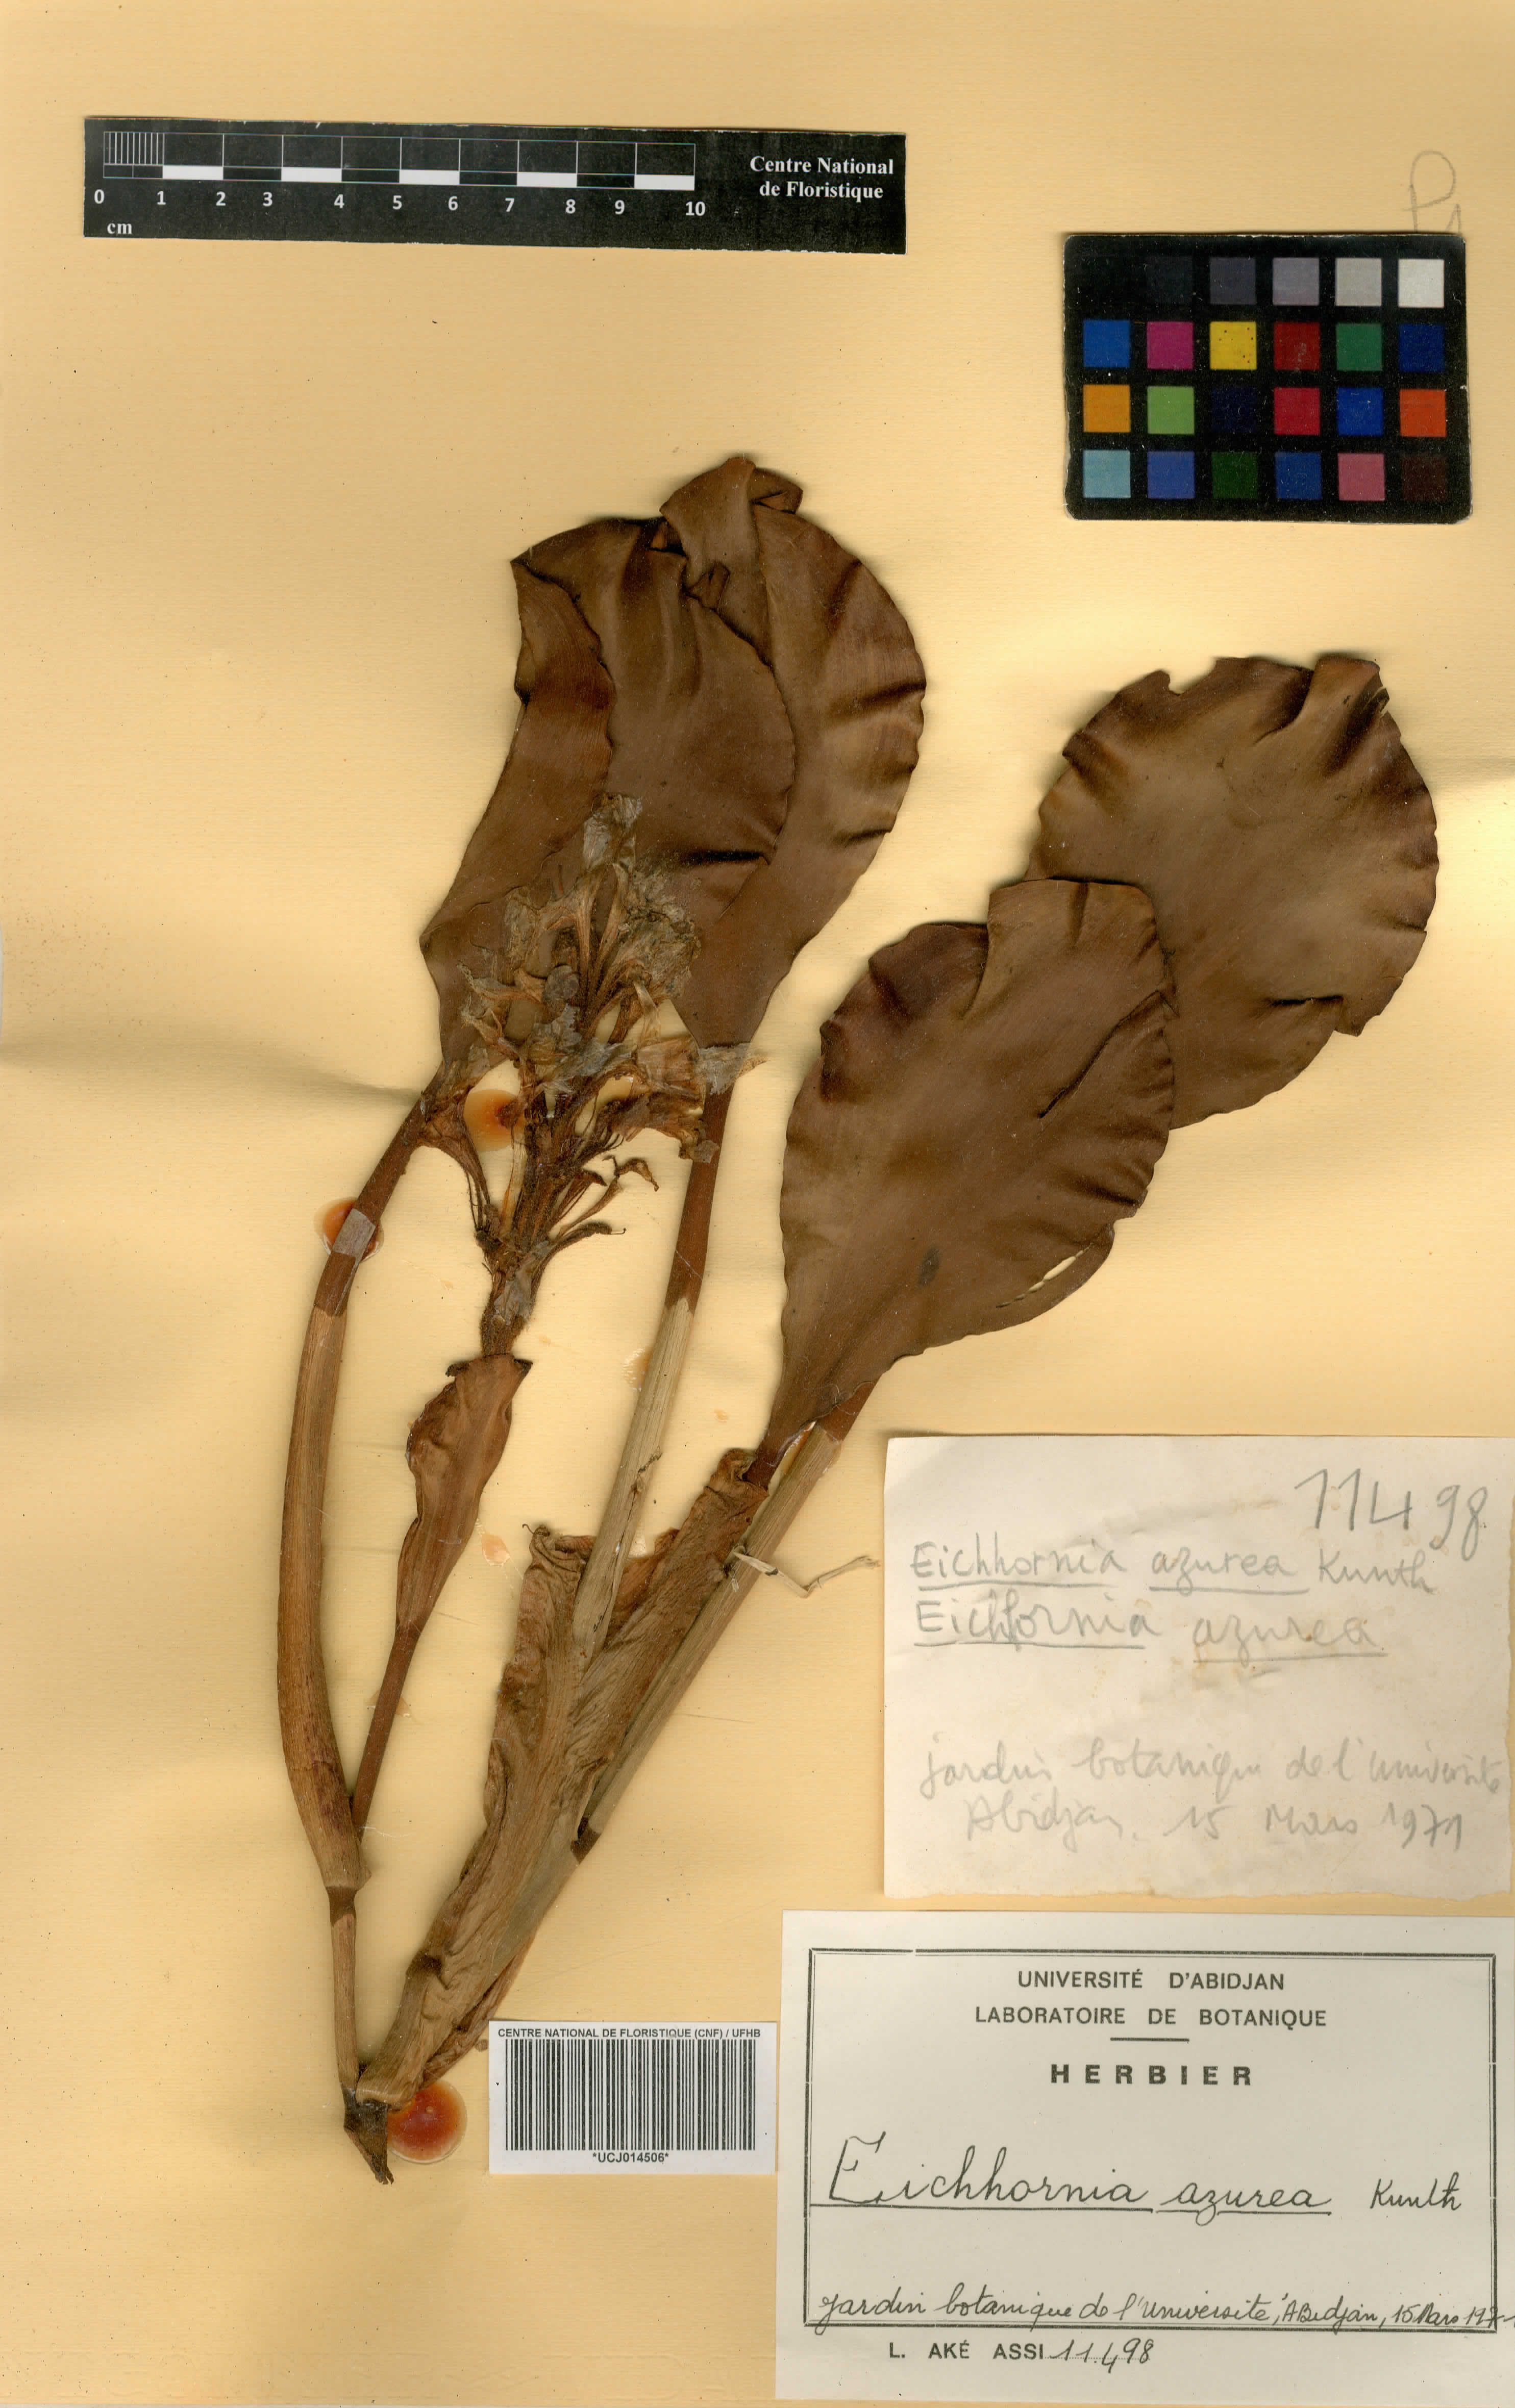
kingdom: Plantae
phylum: Tracheophyta
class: Liliopsida
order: Commelinales
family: Pontederiaceae
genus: Pontederia
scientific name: Pontederia azurea
